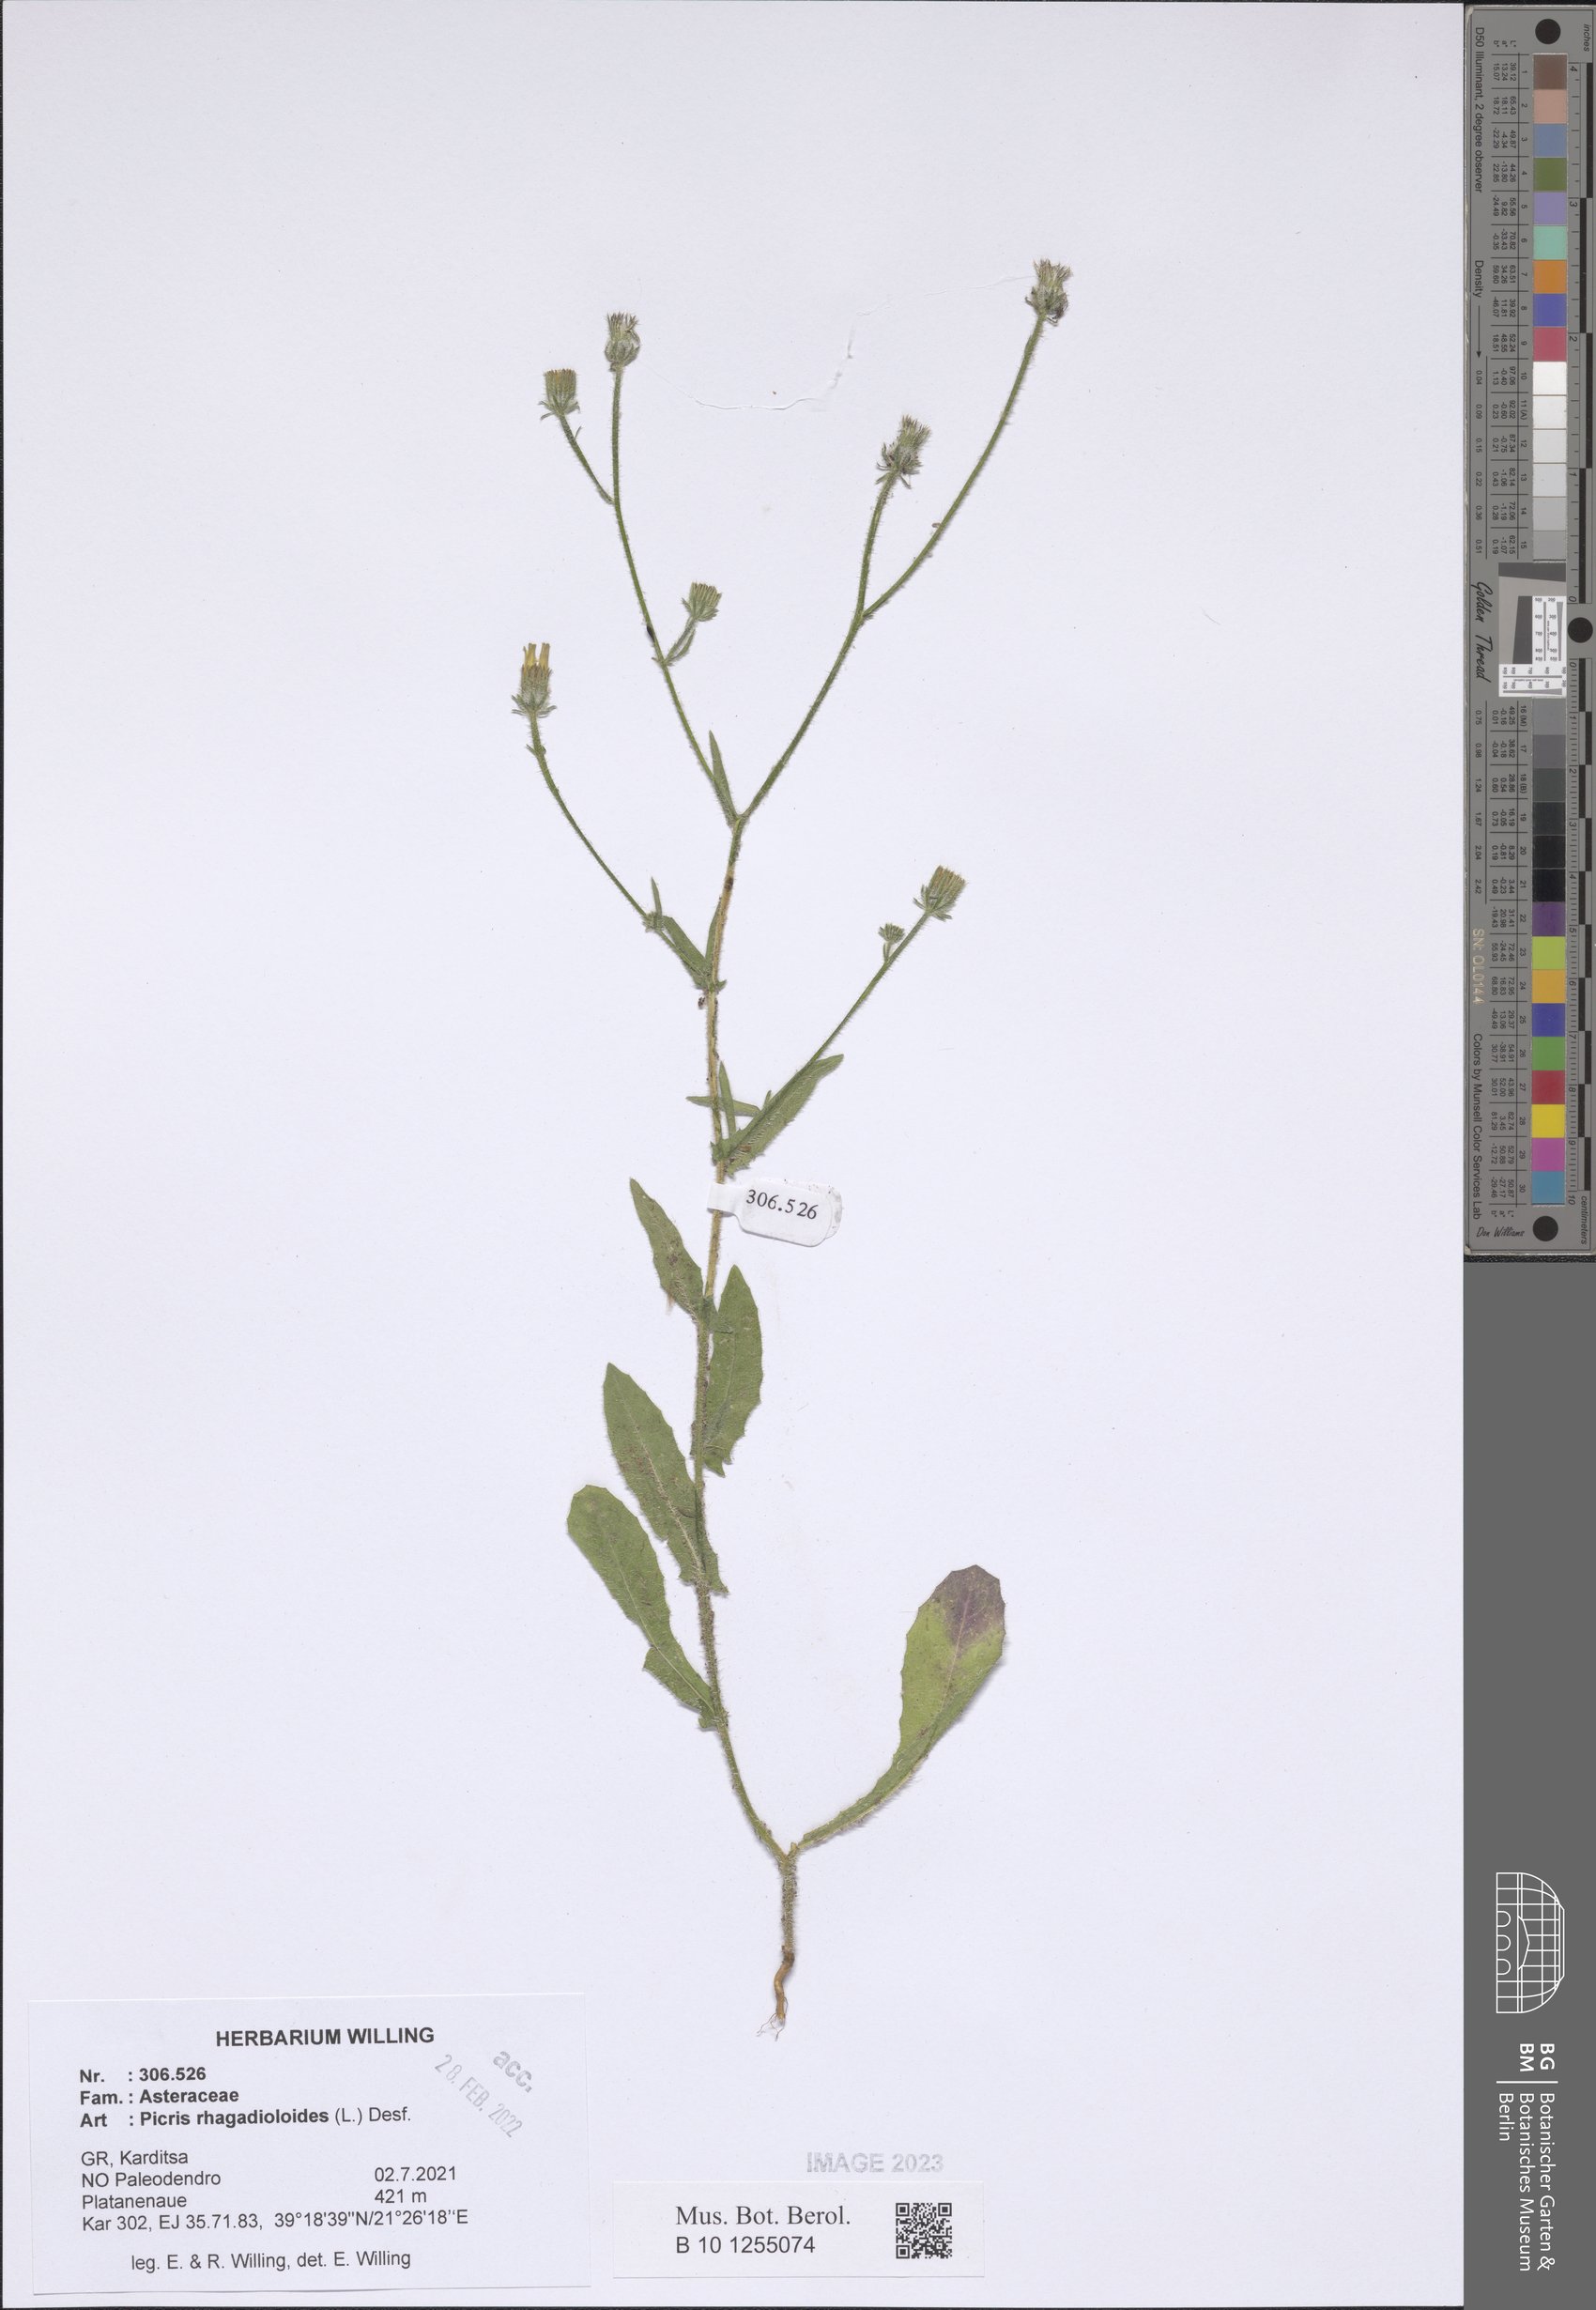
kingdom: Plantae
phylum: Tracheophyta
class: Magnoliopsida
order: Asterales
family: Asteraceae
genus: Picris
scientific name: Picris rhagadioloides
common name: Oxtongue
